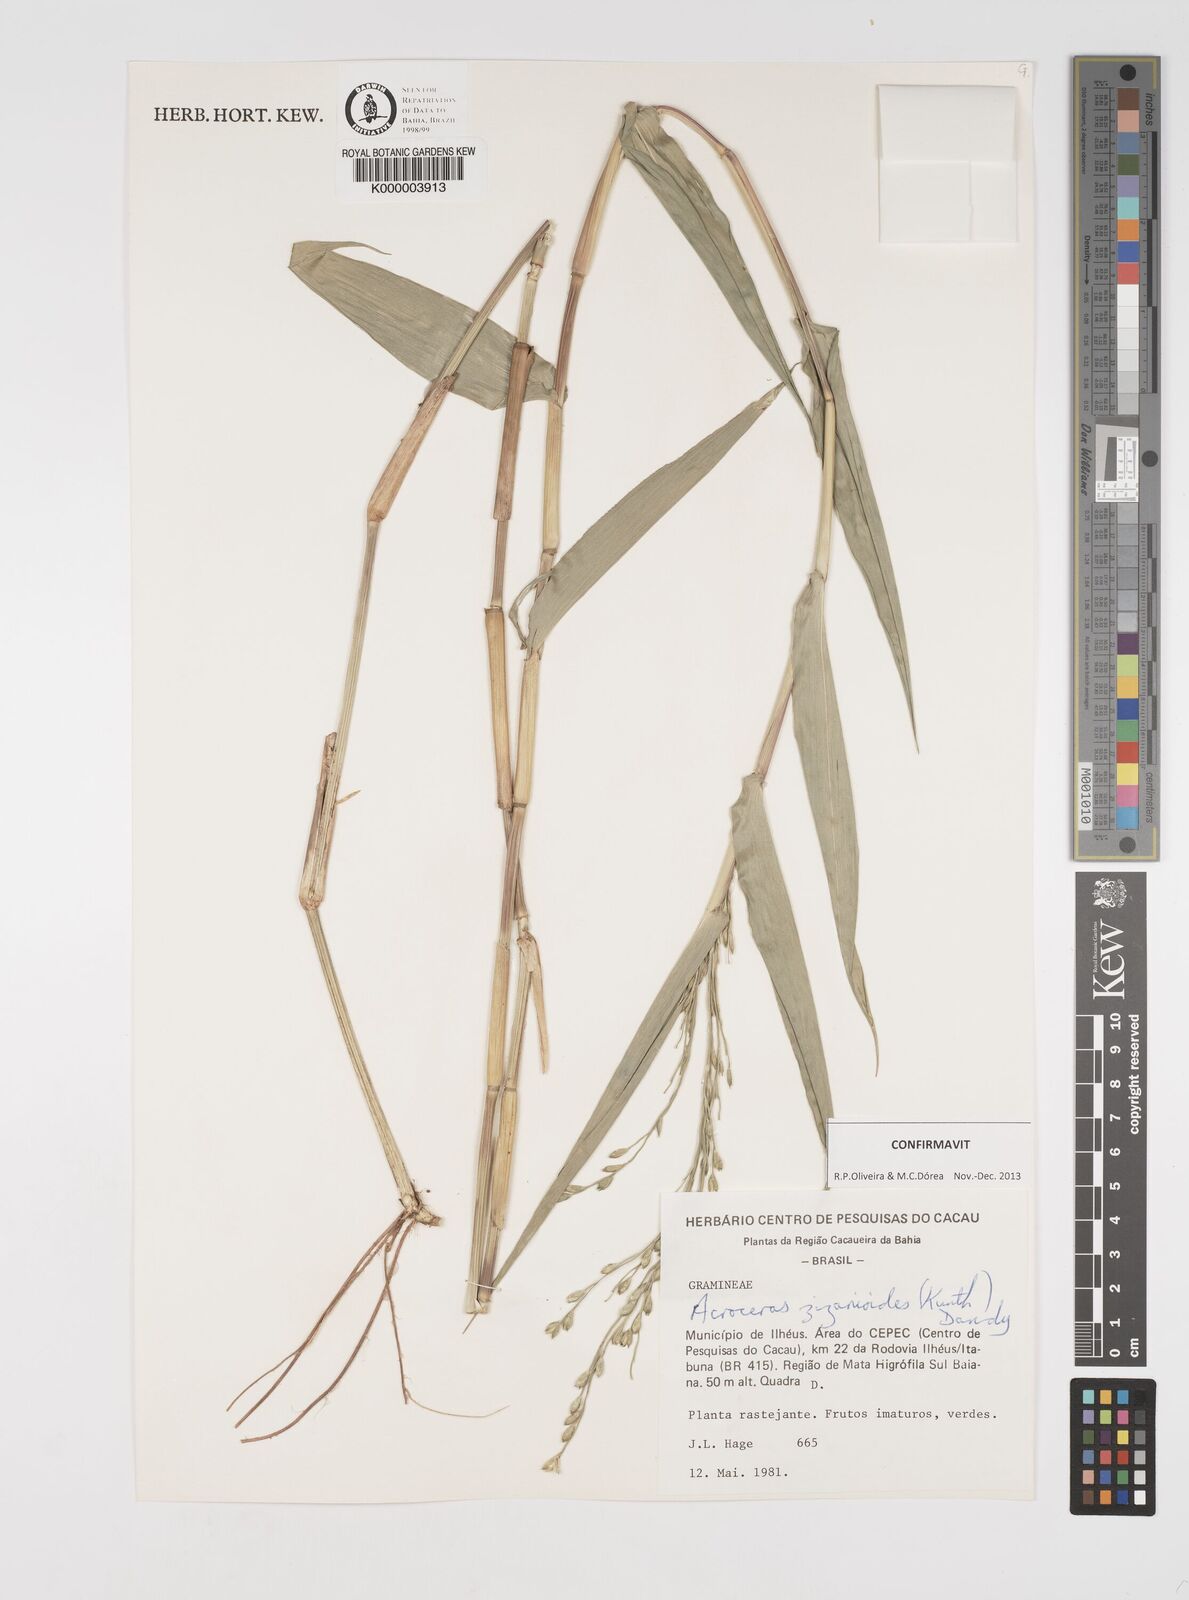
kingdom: Plantae
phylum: Tracheophyta
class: Liliopsida
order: Poales
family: Poaceae
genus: Acroceras
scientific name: Acroceras zizanioides
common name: Oat grass
